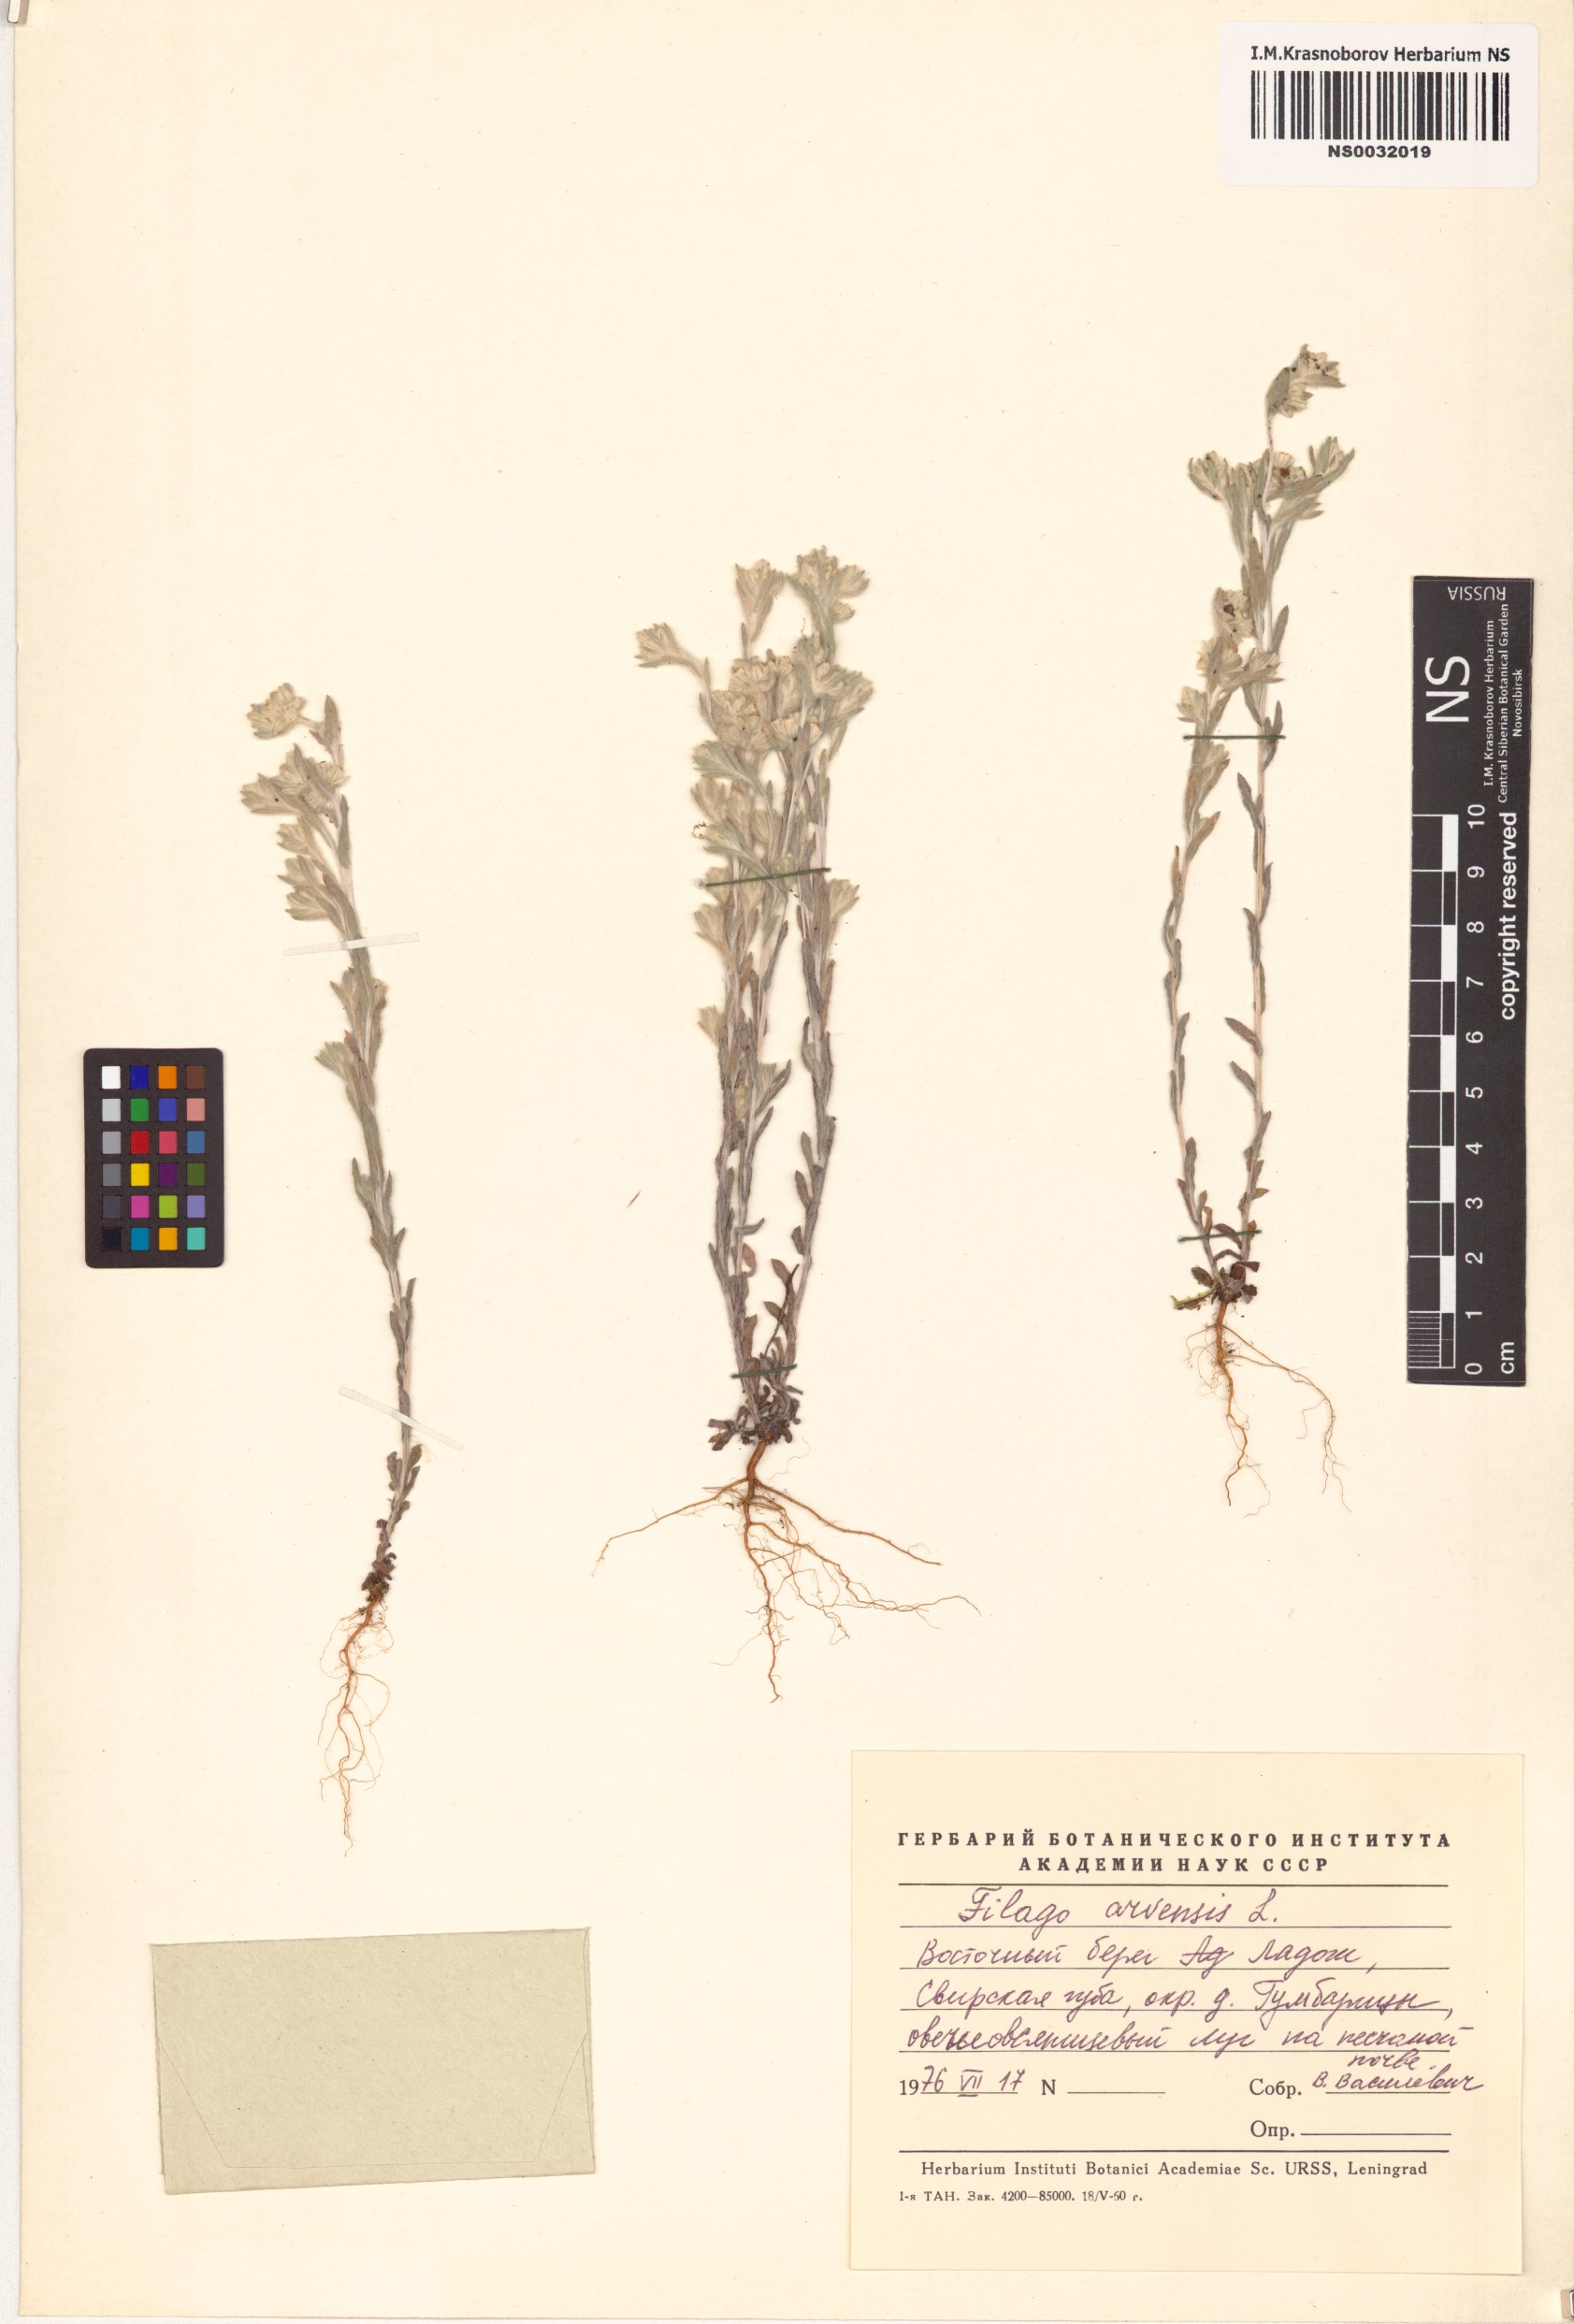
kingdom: Plantae
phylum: Tracheophyta
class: Magnoliopsida
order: Asterales
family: Asteraceae
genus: Filago
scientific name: Filago arvensis
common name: Field cudweed
